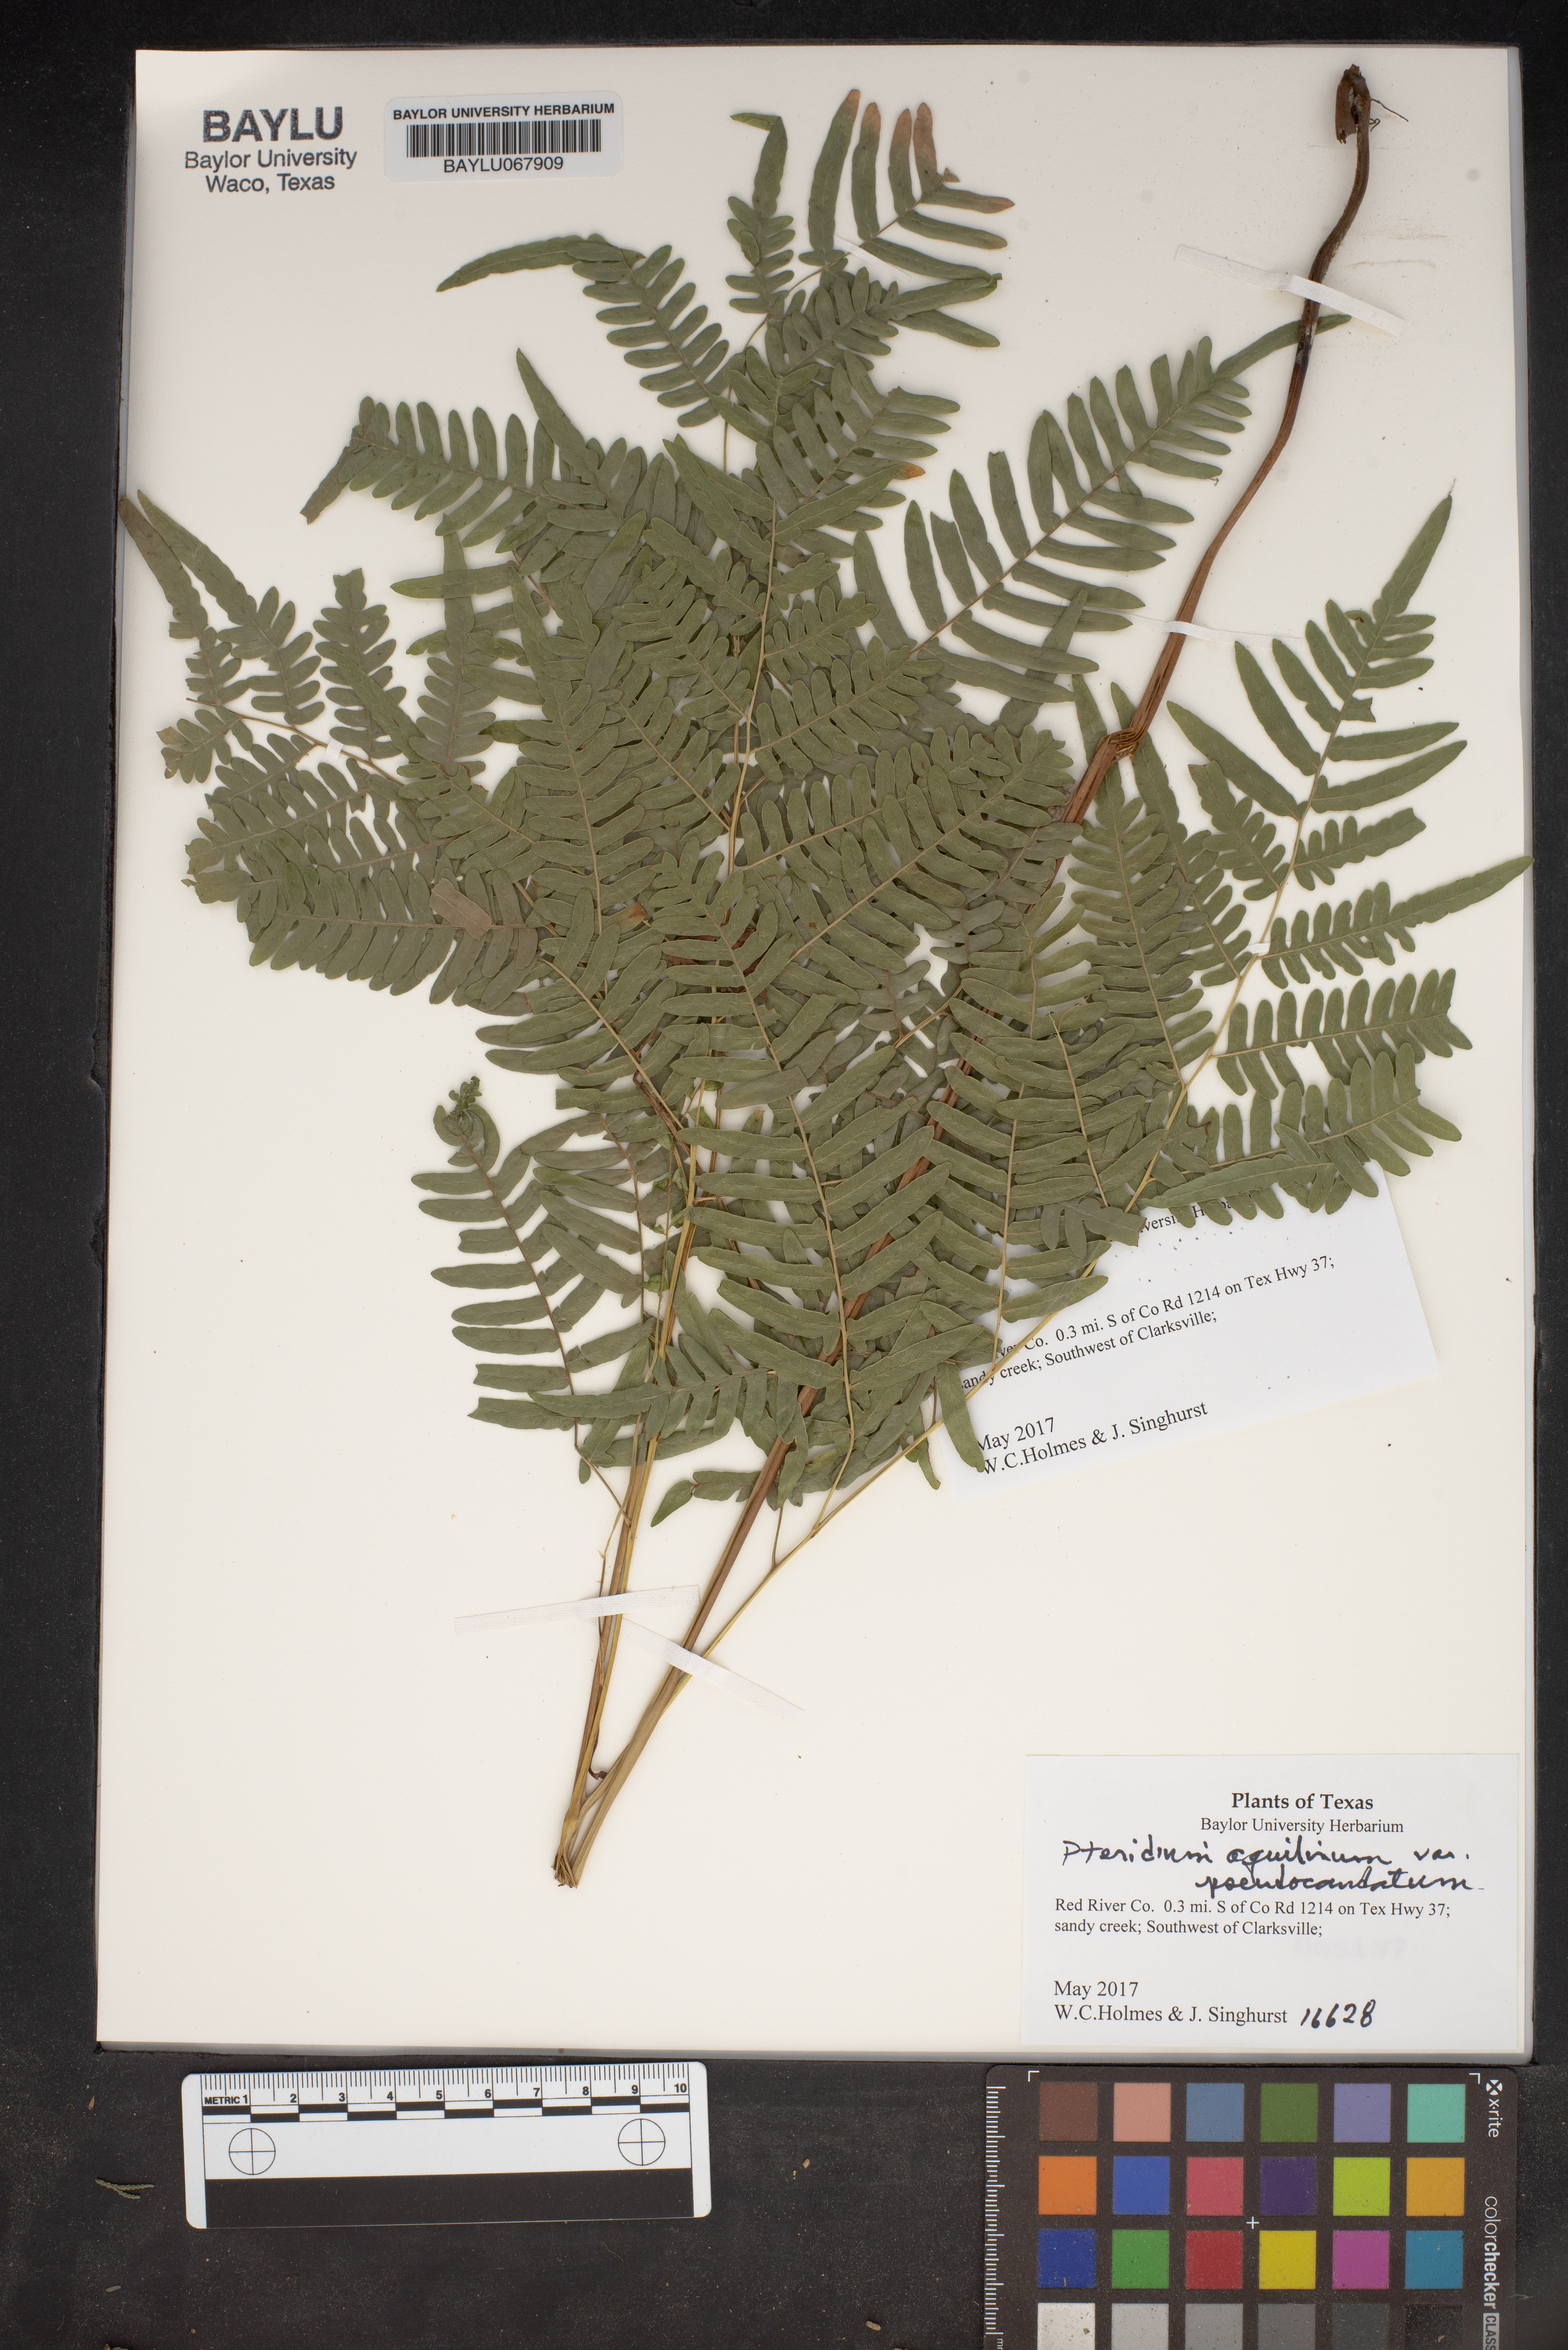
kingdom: Plantae
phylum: Tracheophyta
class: Polypodiopsida
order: Polypodiales
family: Dennstaedtiaceae
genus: Pteridium
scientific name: Pteridium aquilinum
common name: Bracken
